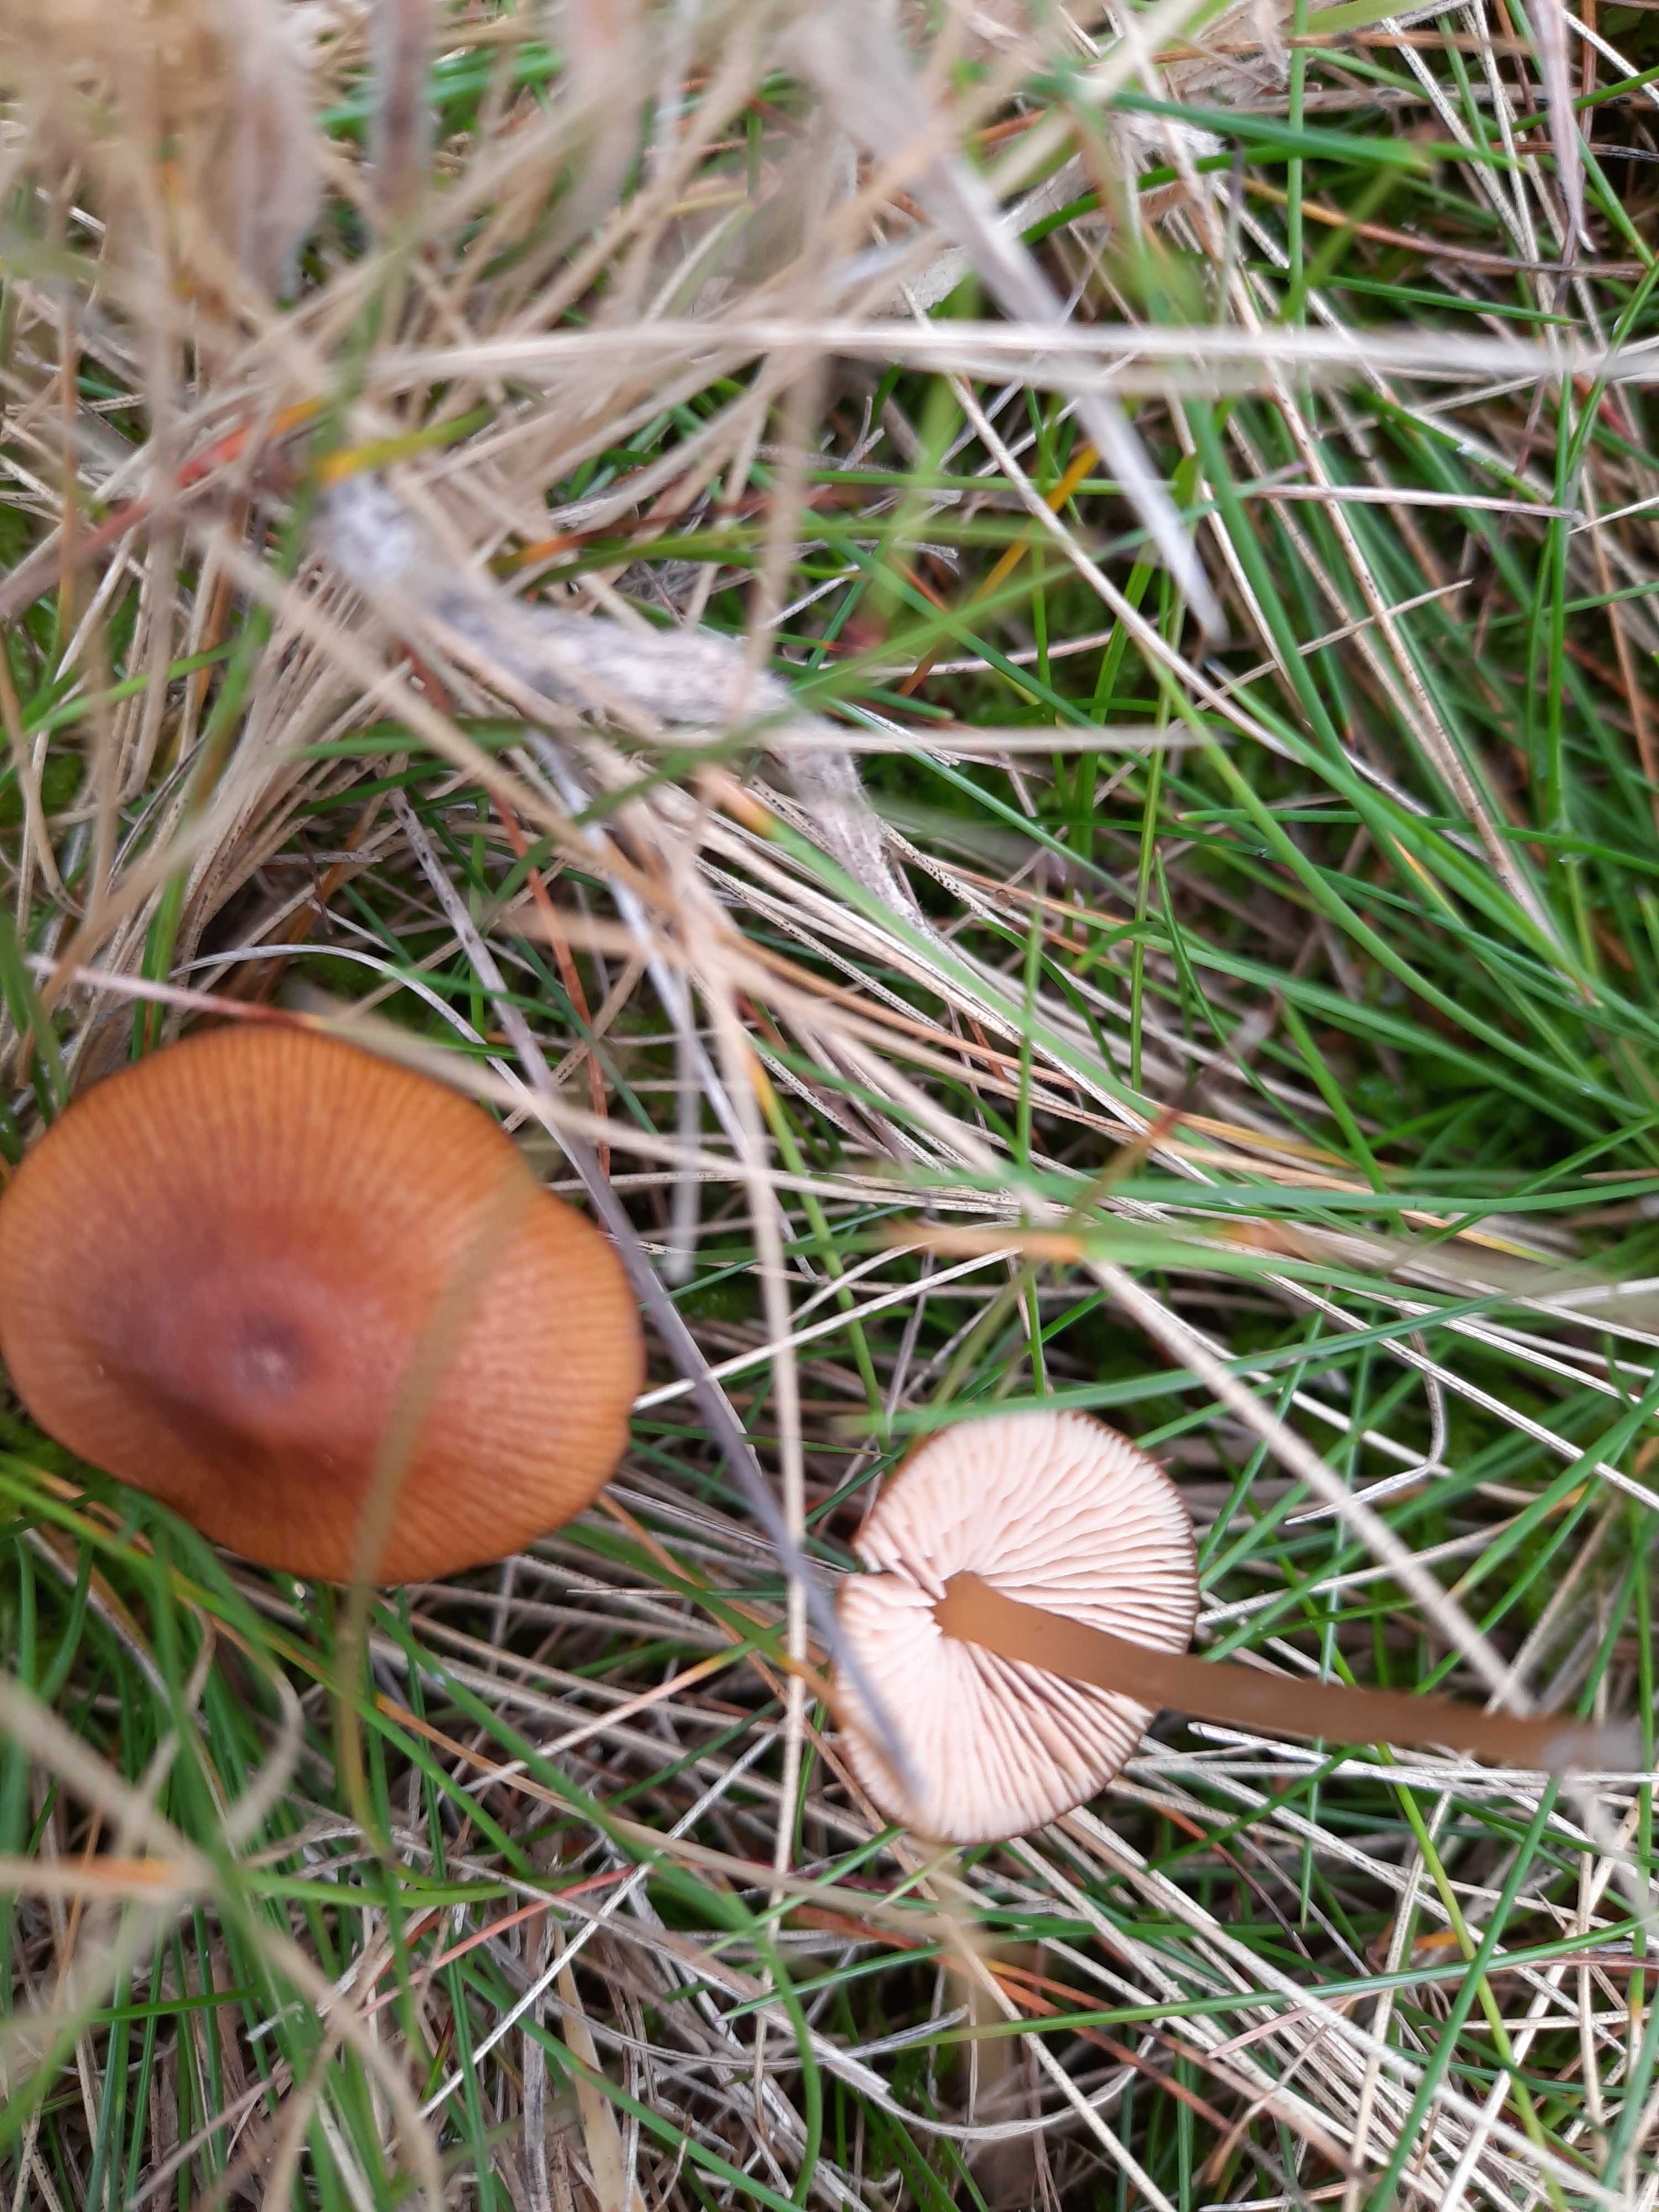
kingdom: Fungi
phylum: Basidiomycota
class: Agaricomycetes
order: Agaricales
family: Entolomataceae
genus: Entoloma
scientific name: Entoloma formosum
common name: brungul rødblad
